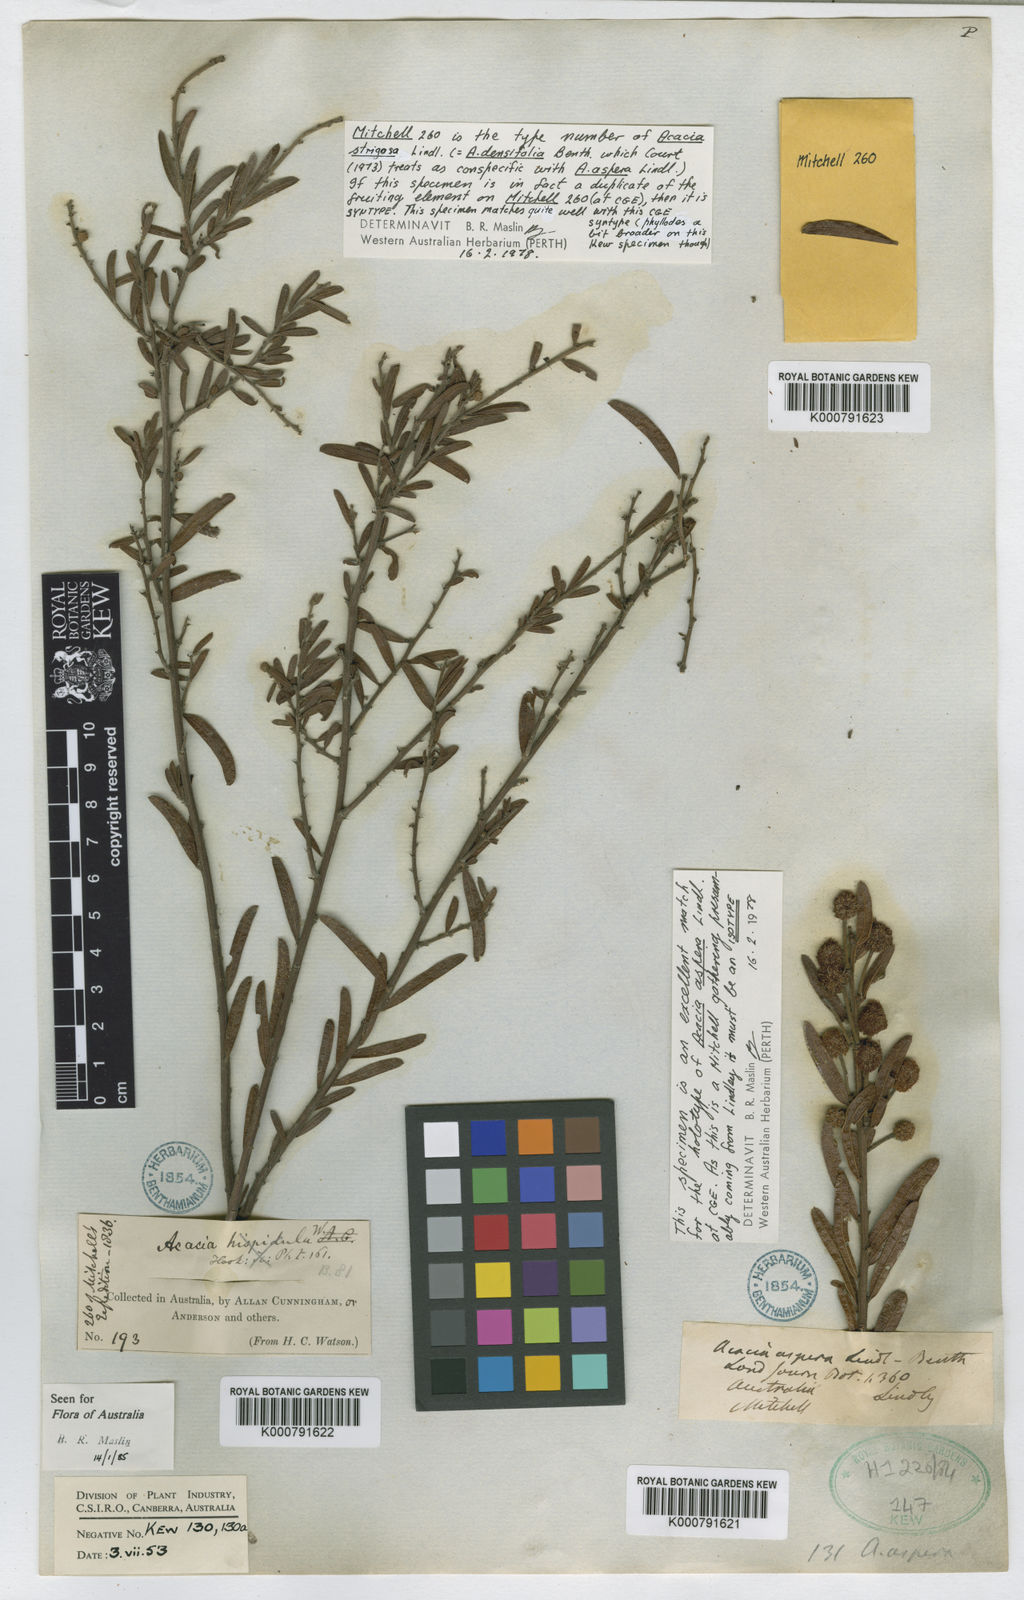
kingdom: Plantae
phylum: Tracheophyta
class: Magnoliopsida
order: Fabales
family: Fabaceae
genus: Acacia
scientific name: Acacia aspera
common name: Rough wattle
